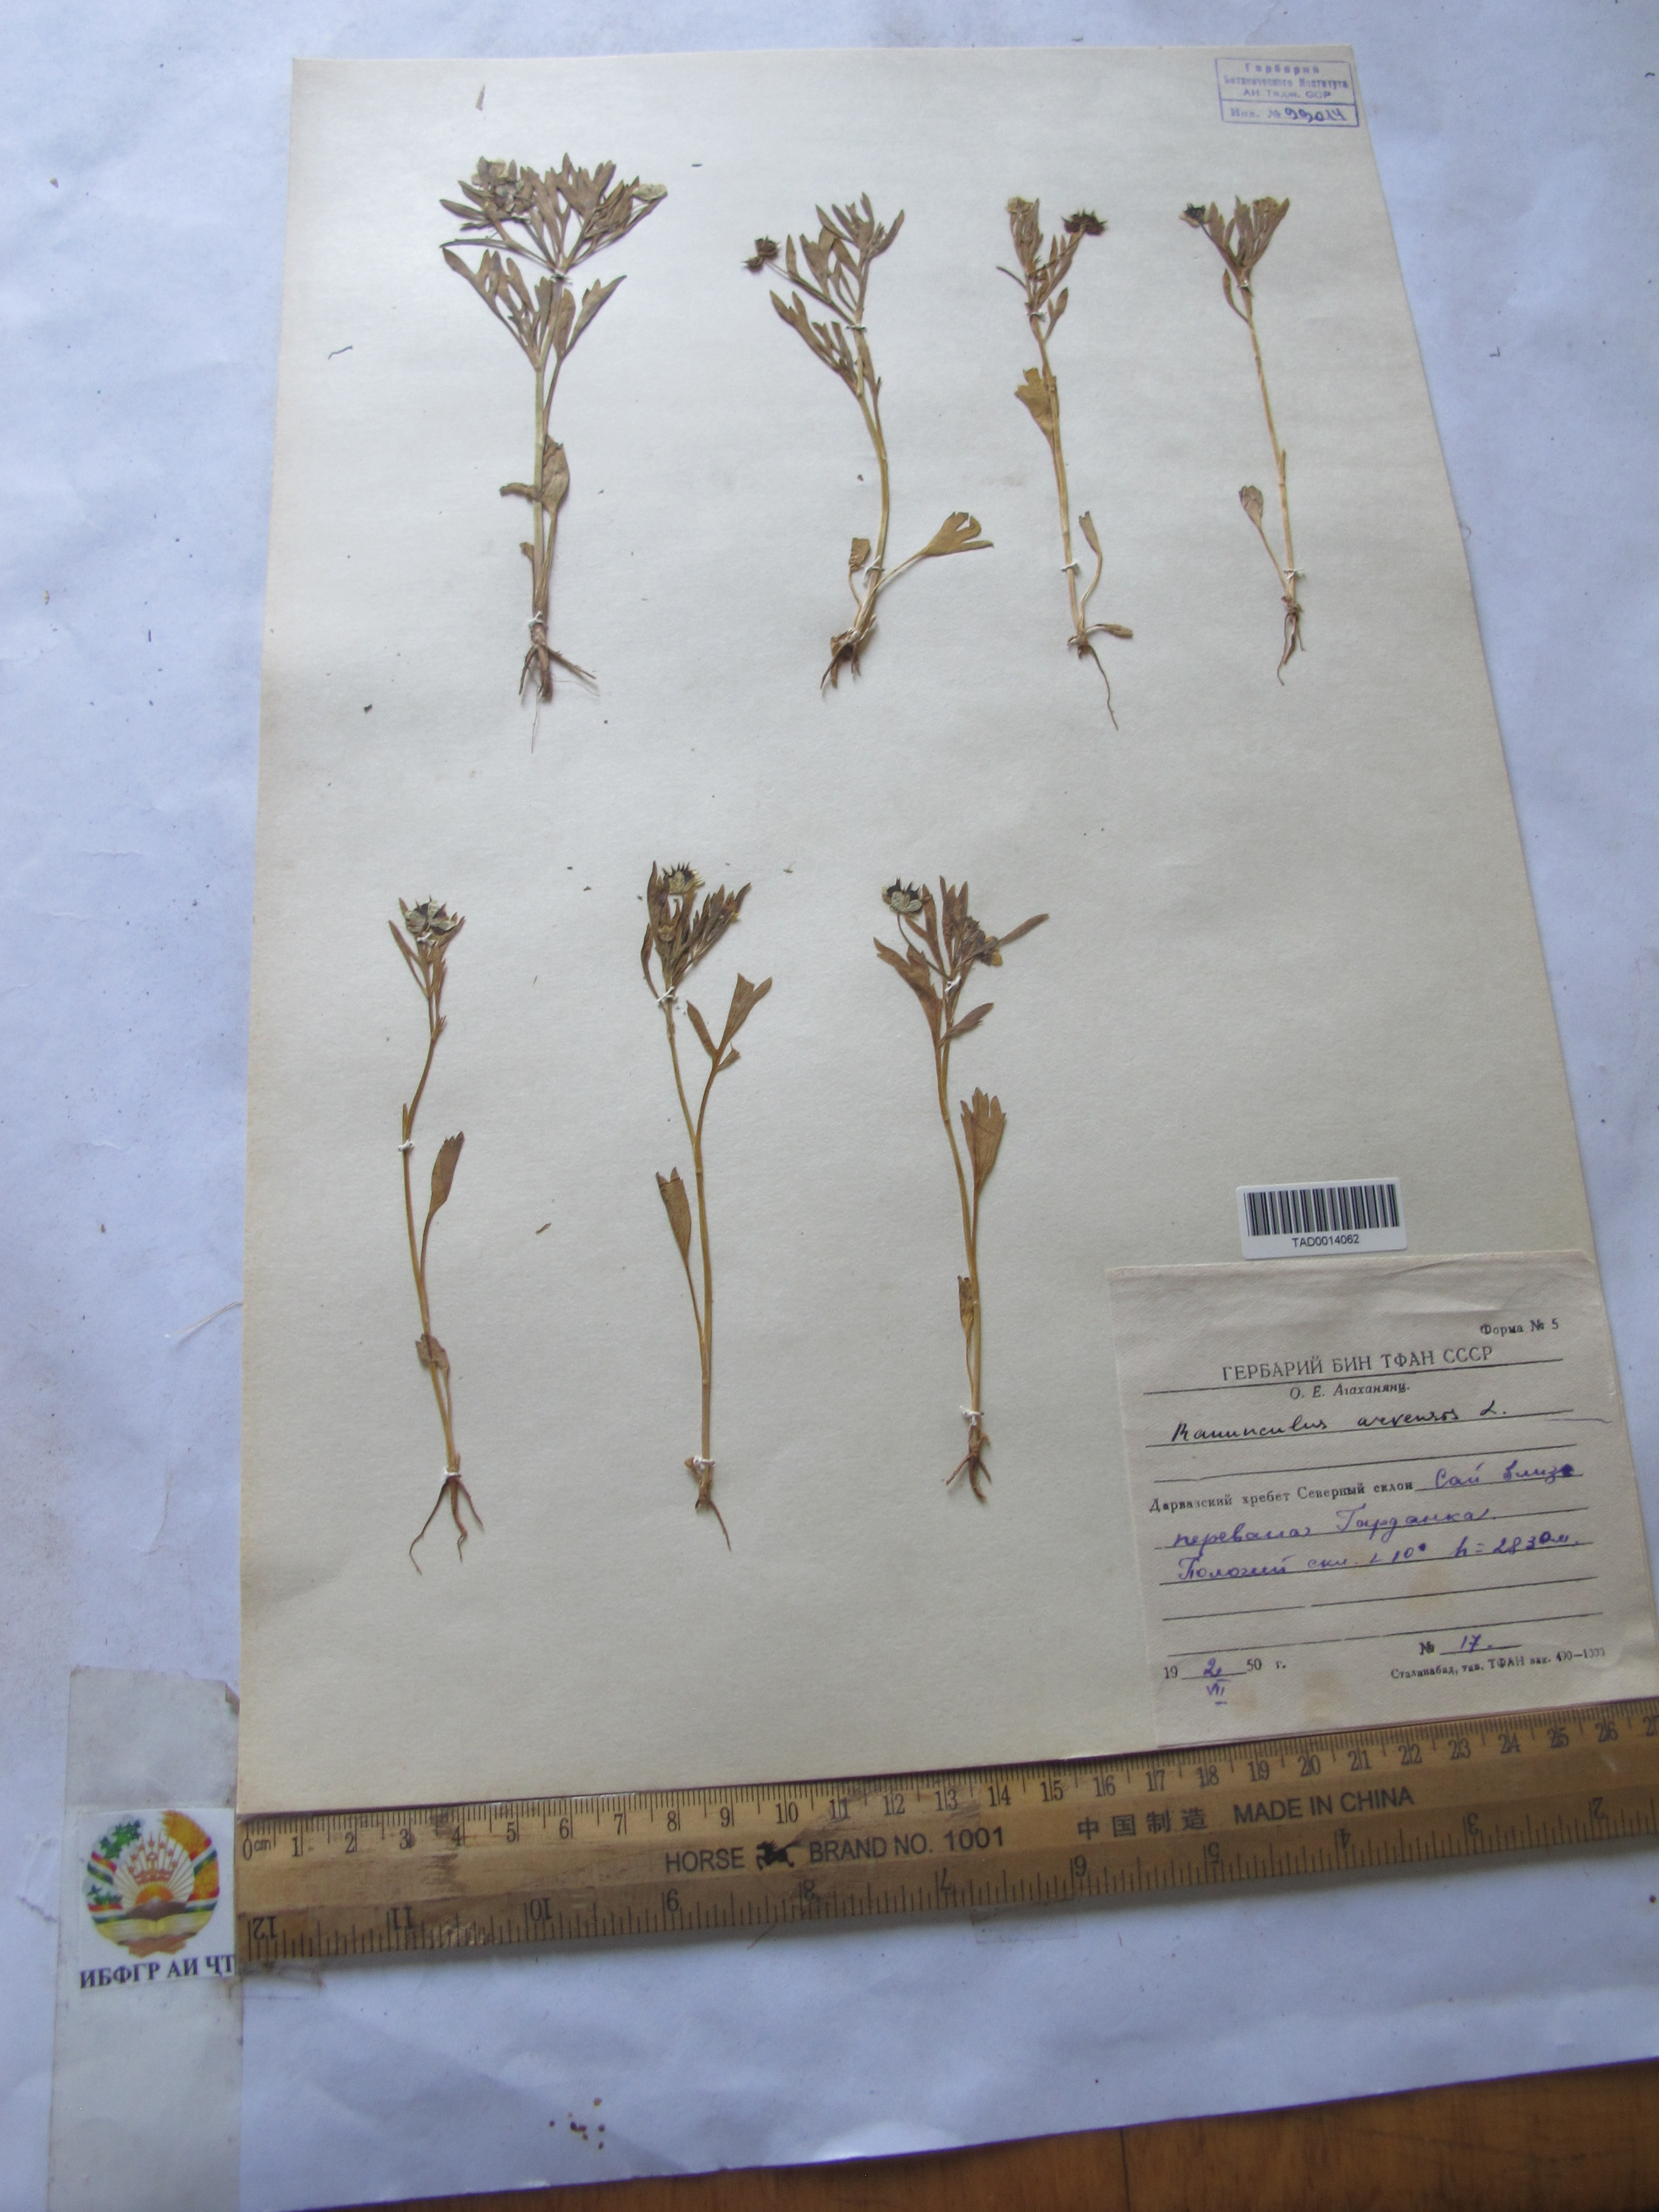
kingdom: Plantae
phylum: Tracheophyta
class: Magnoliopsida
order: Ranunculales
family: Ranunculaceae
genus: Ranunculus
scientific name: Ranunculus arvensis
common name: Corn buttercup
